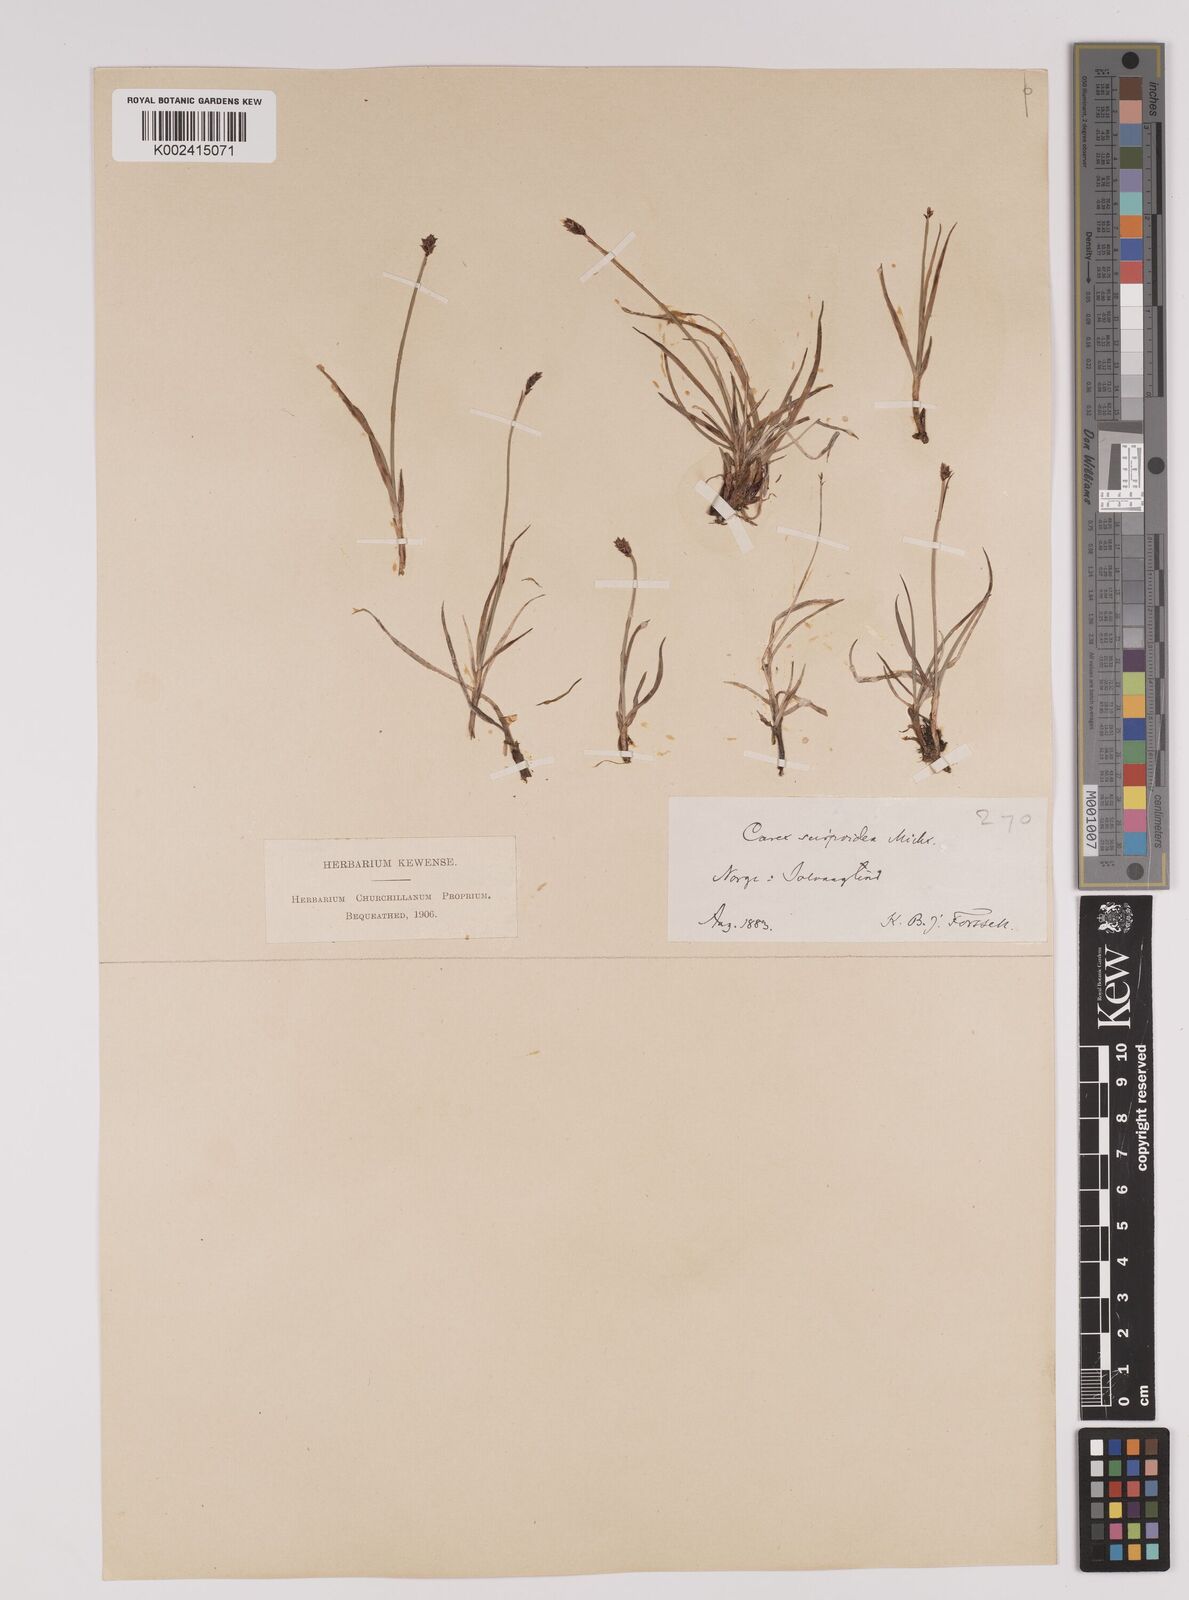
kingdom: Plantae
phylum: Tracheophyta
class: Liliopsida
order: Poales
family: Cyperaceae
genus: Carex
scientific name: Carex
